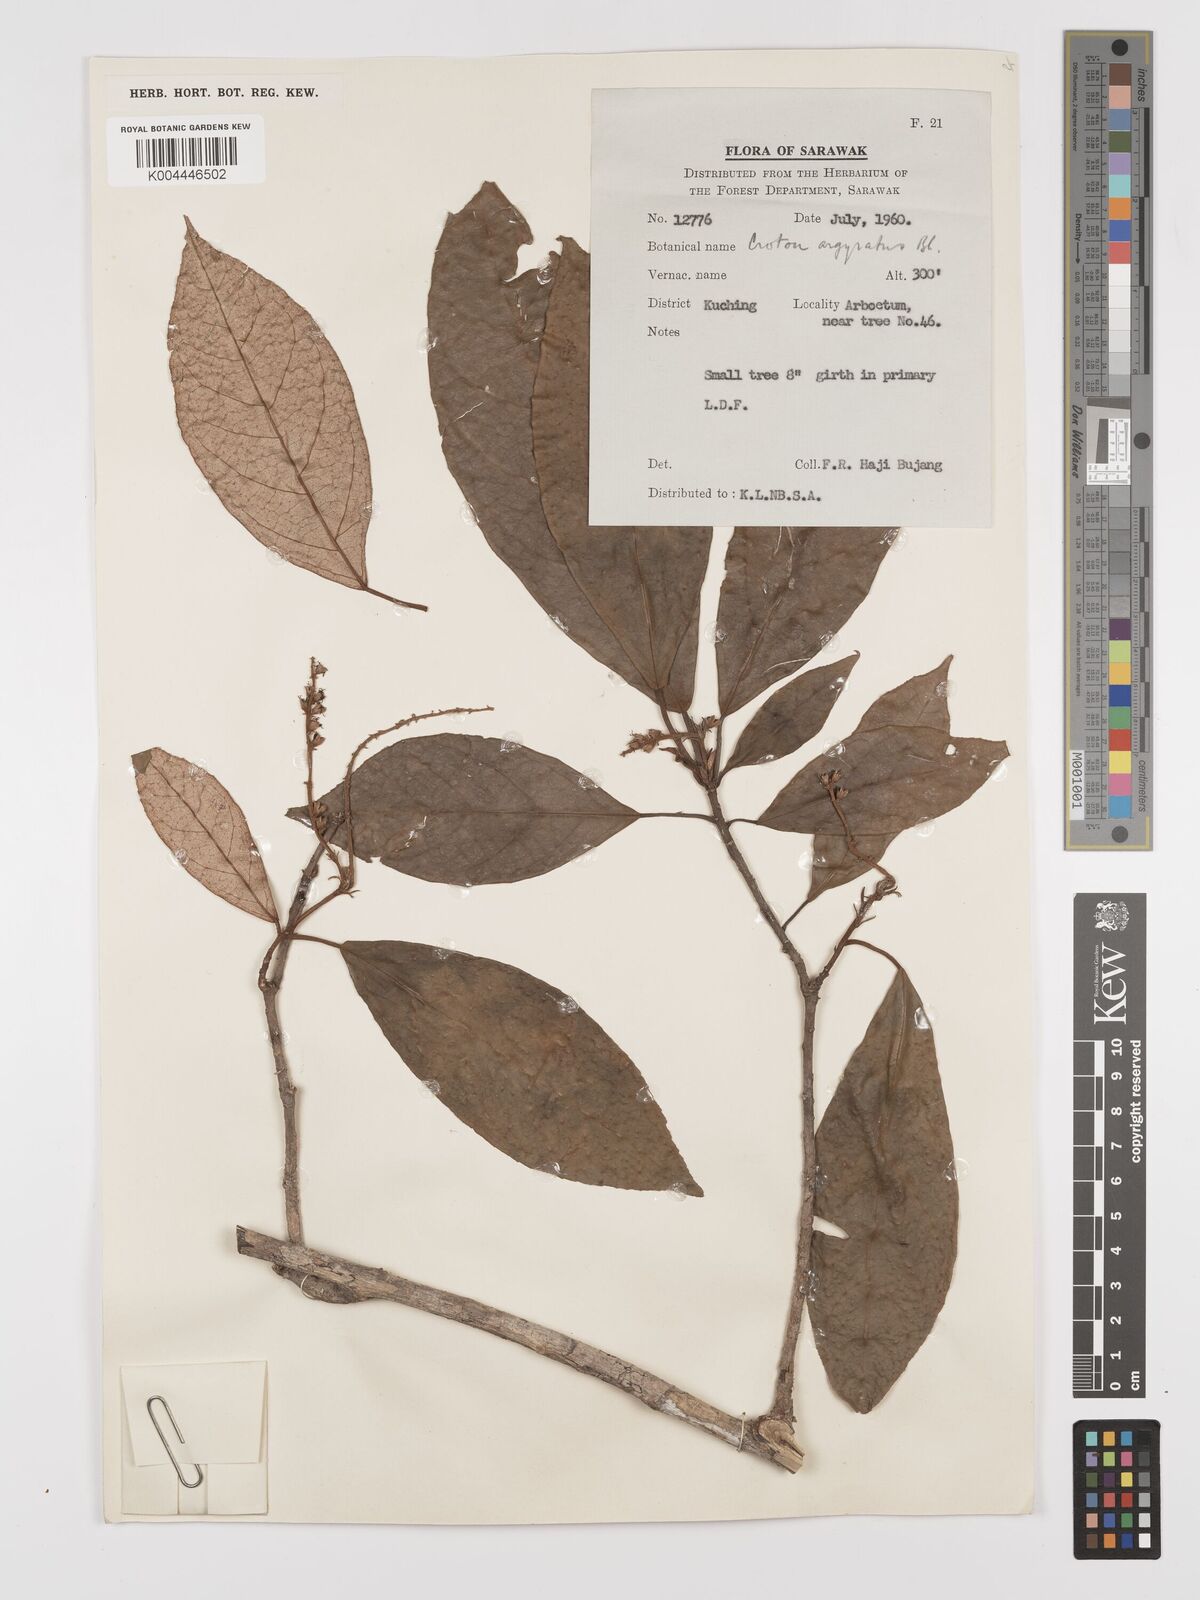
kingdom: Plantae
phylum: Tracheophyta
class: Magnoliopsida
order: Malpighiales
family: Euphorbiaceae
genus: Croton
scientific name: Croton argyratus
